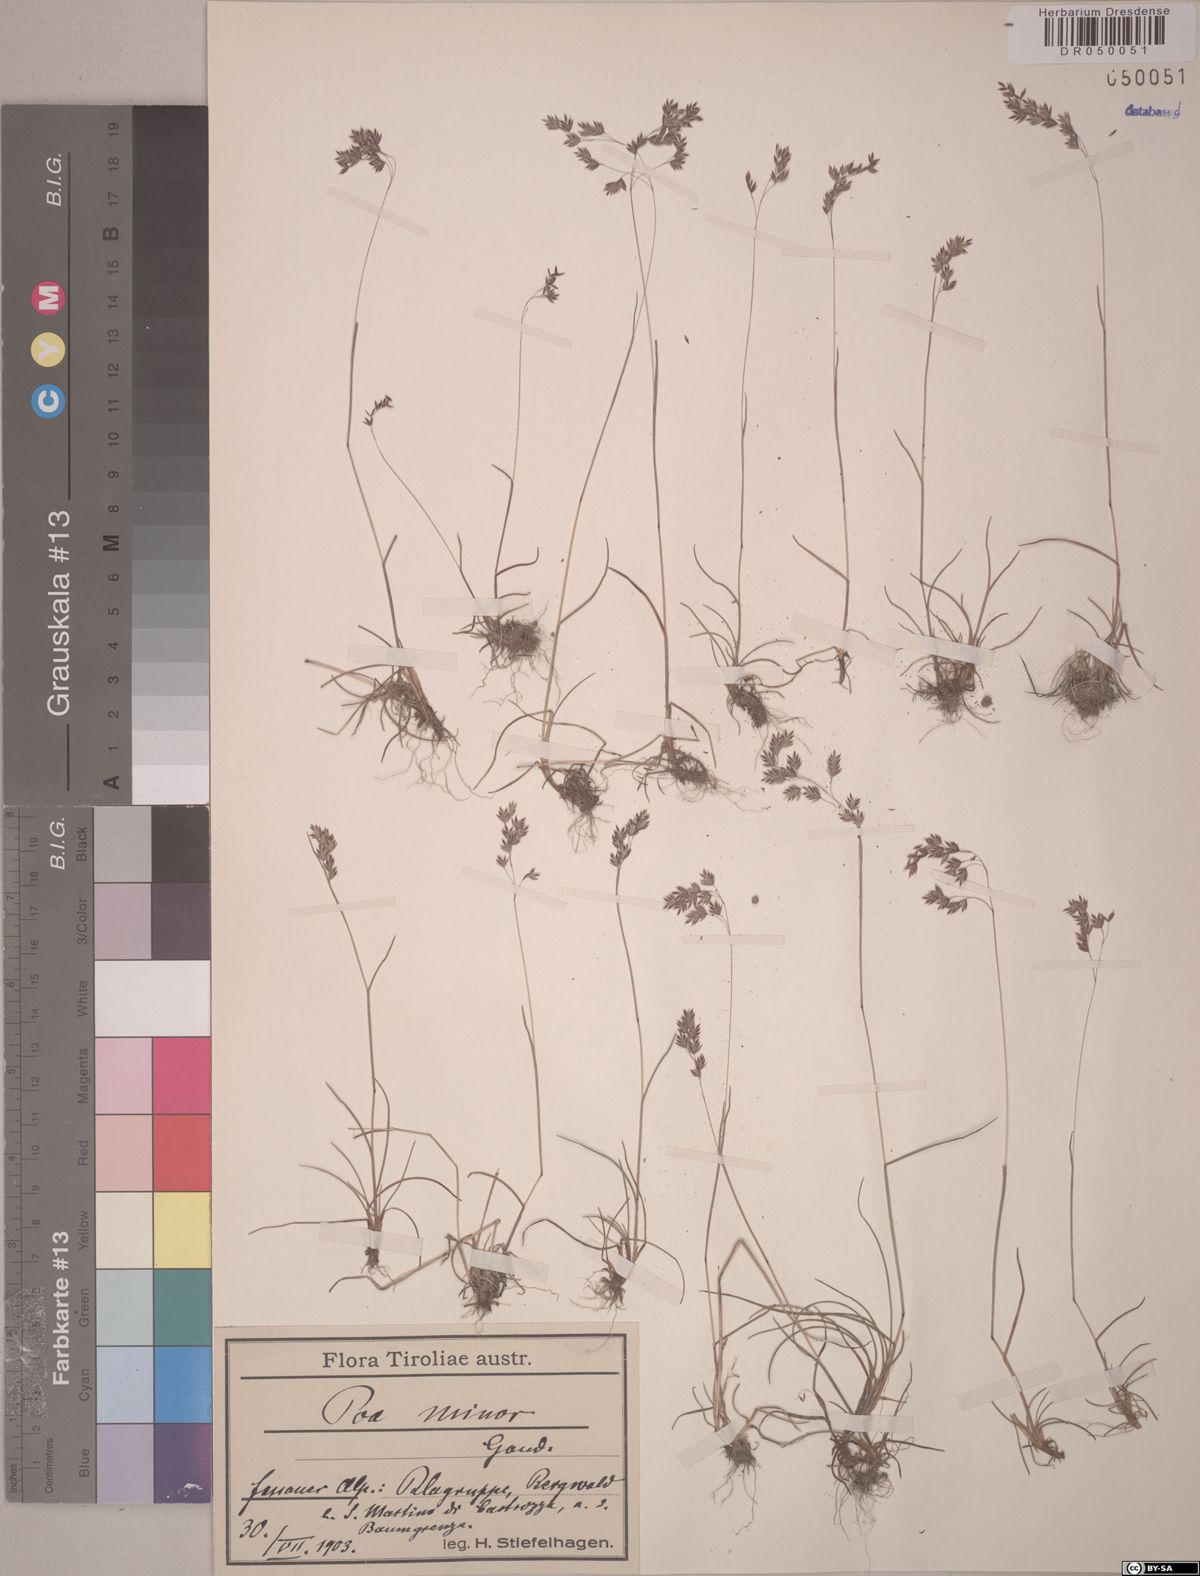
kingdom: Plantae
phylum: Tracheophyta
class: Liliopsida
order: Poales
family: Poaceae
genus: Poa
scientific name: Poa minor
